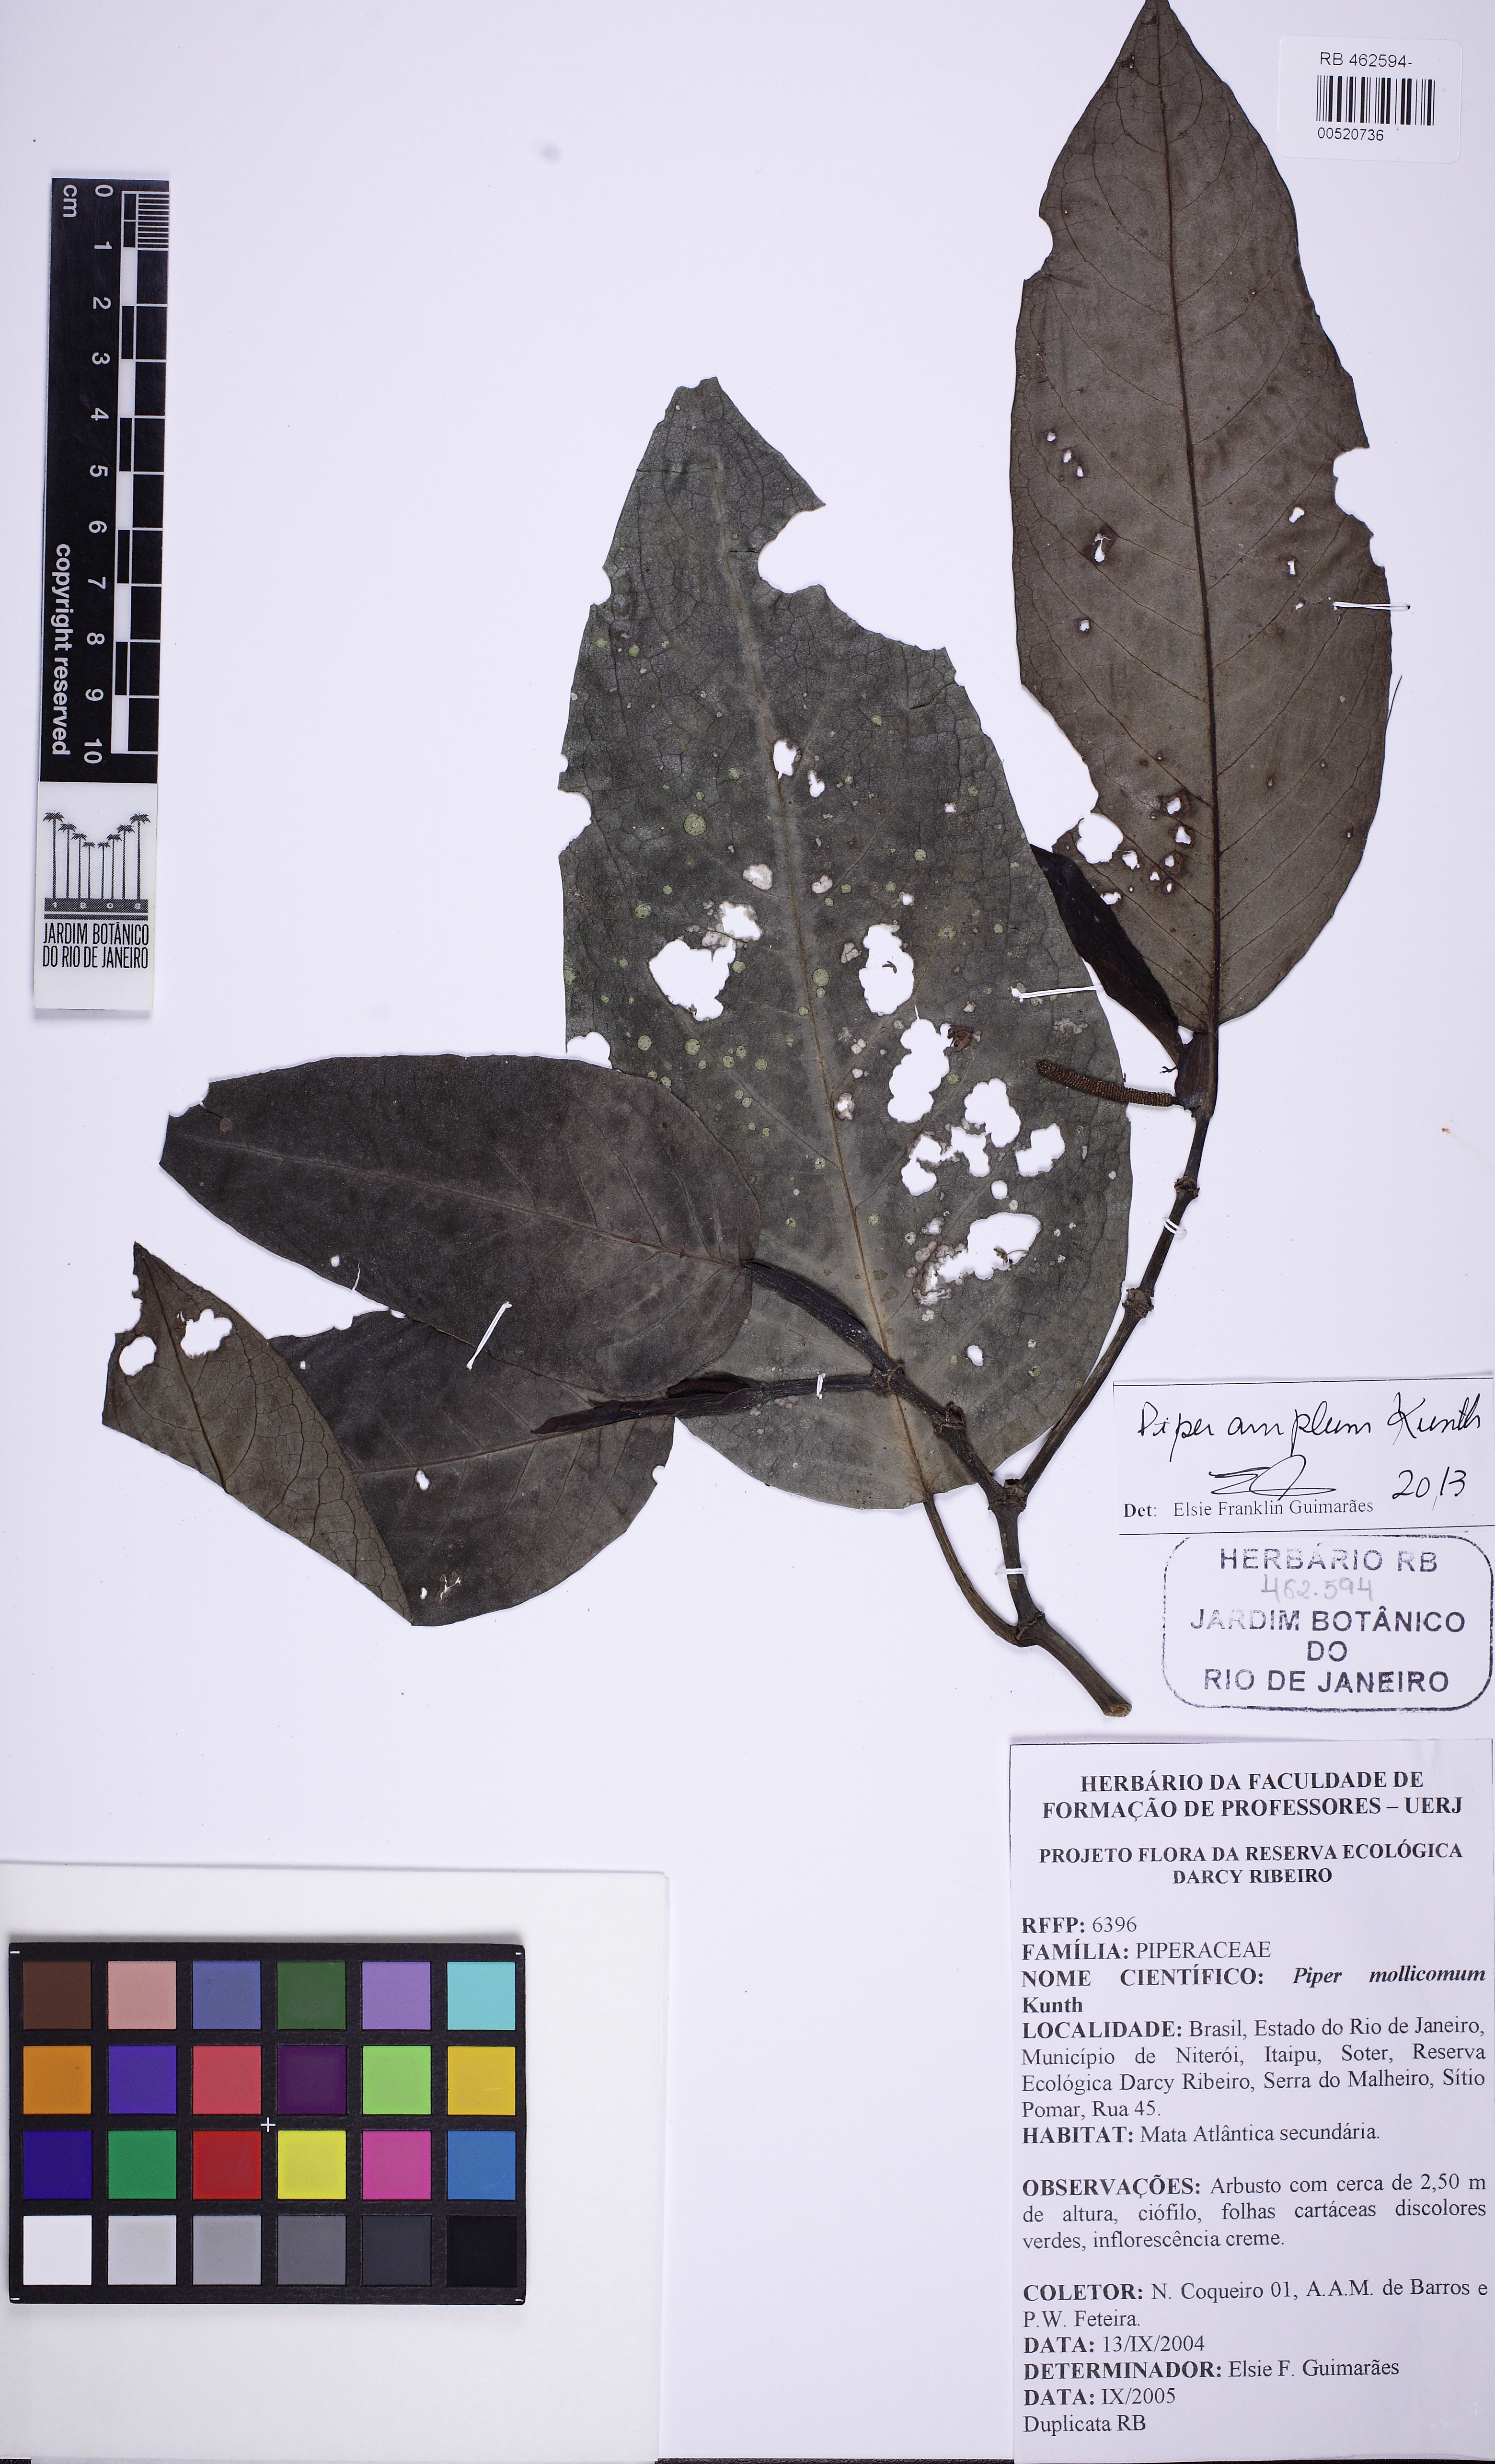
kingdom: Plantae
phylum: Tracheophyta
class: Magnoliopsida
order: Piperales
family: Piperaceae
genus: Piper
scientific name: Piper fluminense
